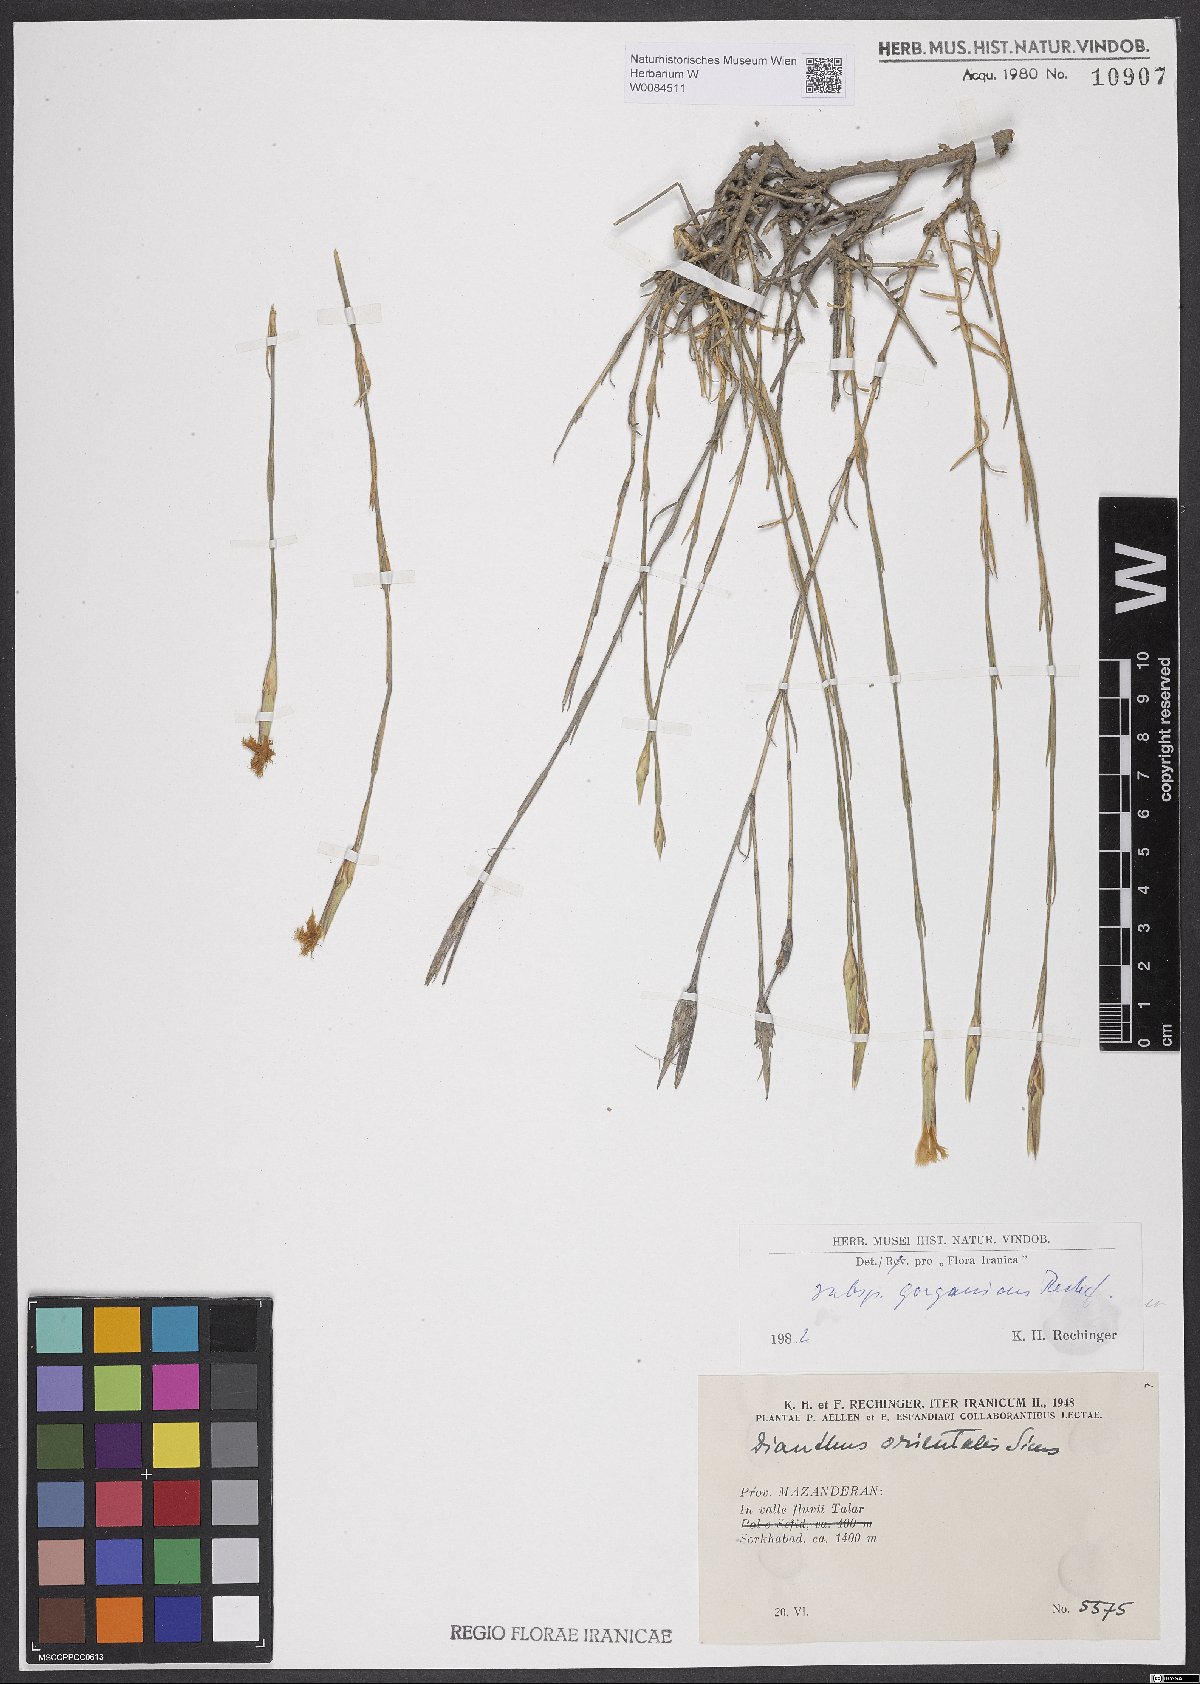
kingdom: Plantae
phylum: Tracheophyta
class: Magnoliopsida
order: Caryophyllales
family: Caryophyllaceae
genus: Dianthus
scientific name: Dianthus orientalis
